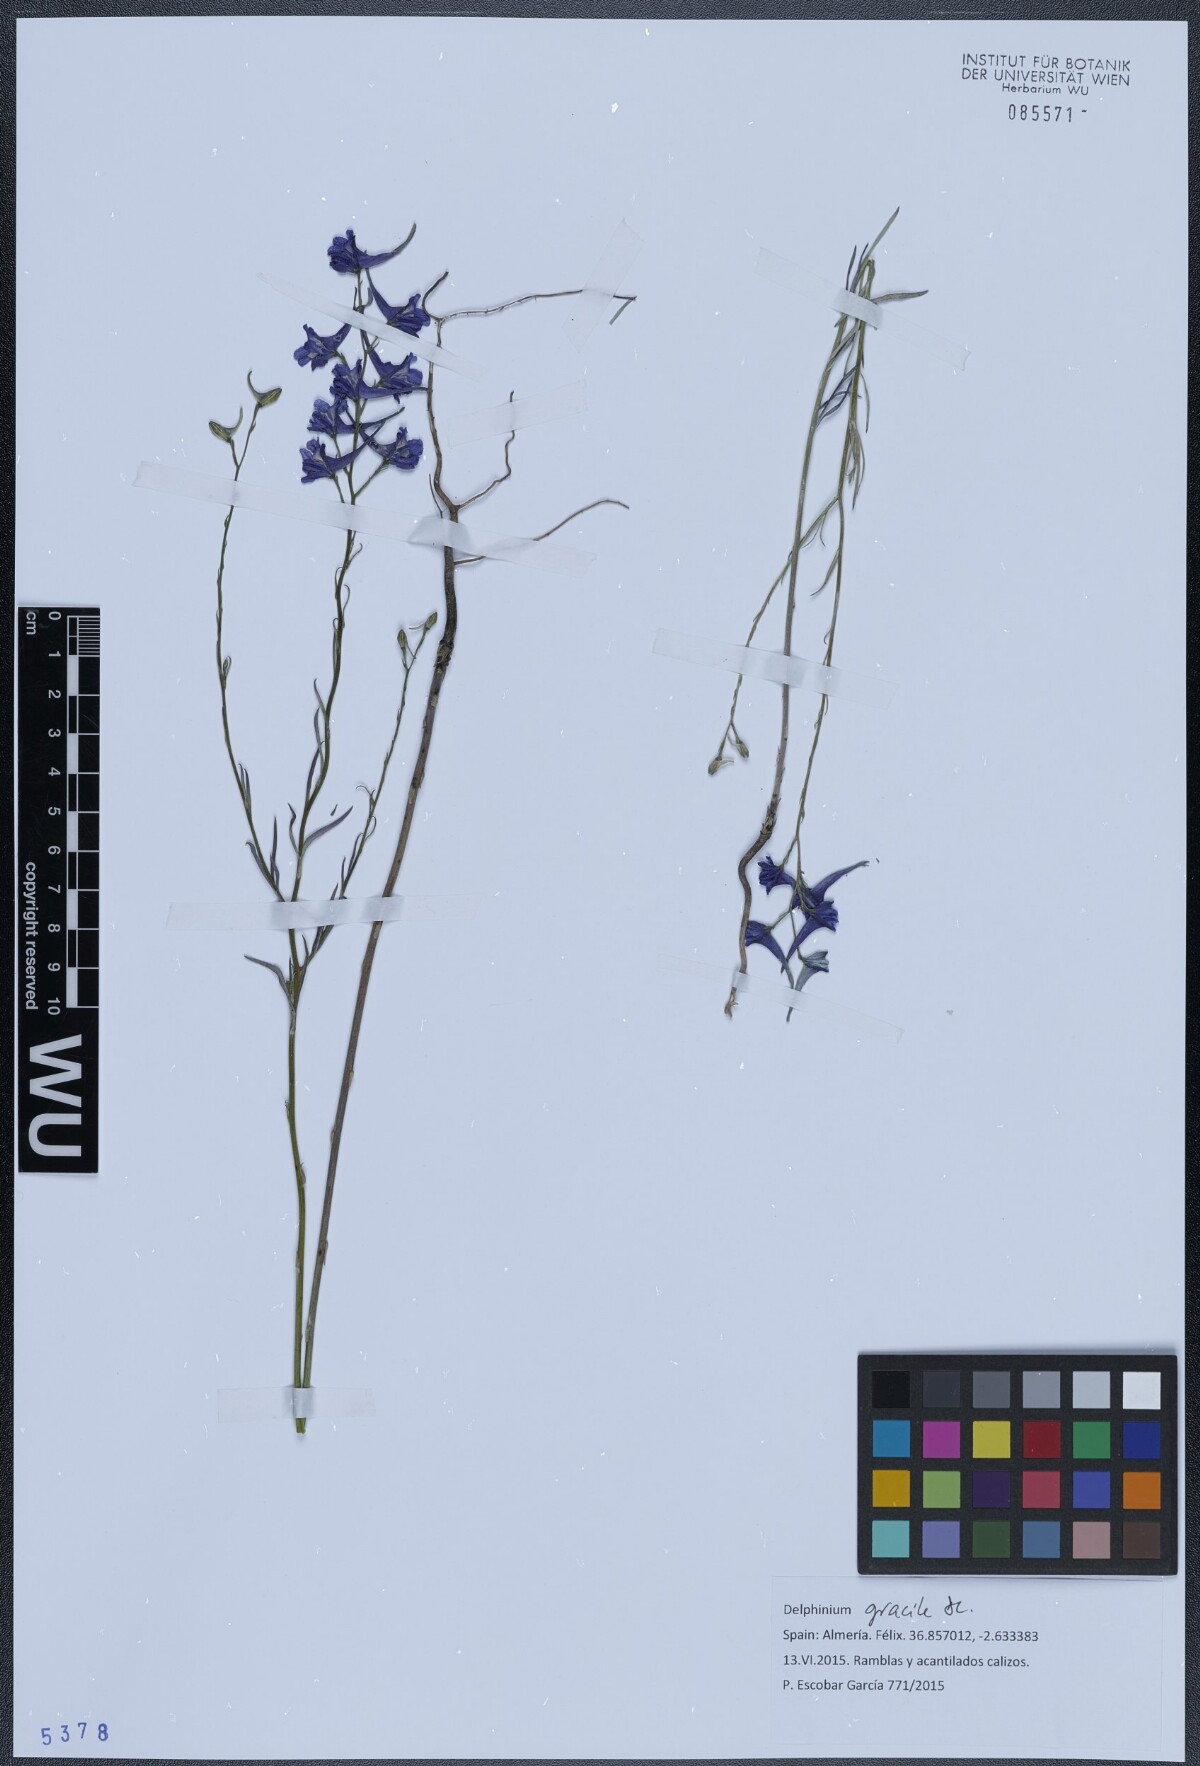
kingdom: Plantae
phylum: Tracheophyta
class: Magnoliopsida
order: Ranunculales
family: Ranunculaceae
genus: Delphinium
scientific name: Delphinium gracile
